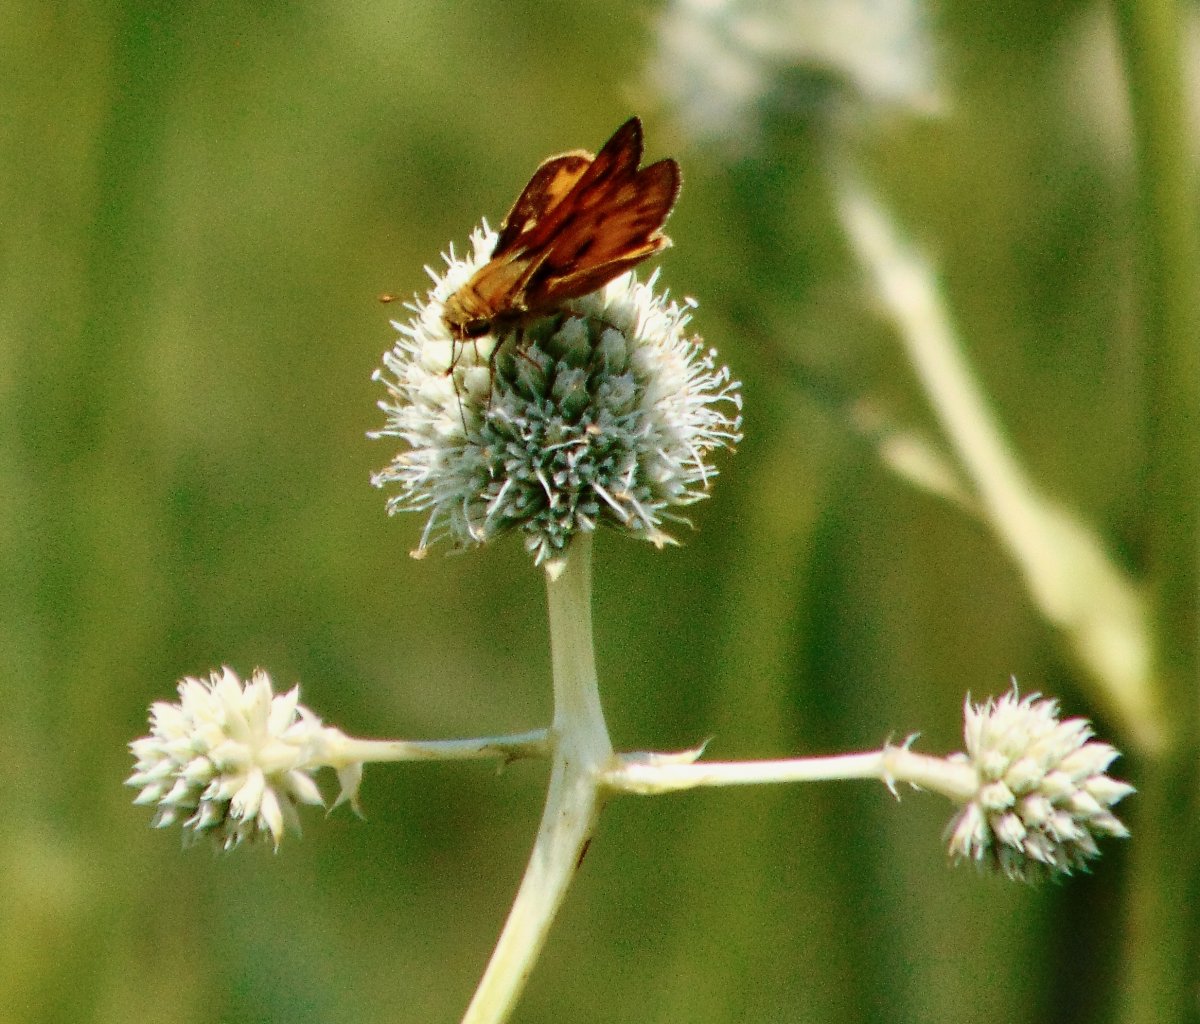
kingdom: Animalia
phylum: Arthropoda
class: Insecta
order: Lepidoptera
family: Hesperiidae
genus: Hylephila
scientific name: Hylephila phyleus
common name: Fiery Skipper
